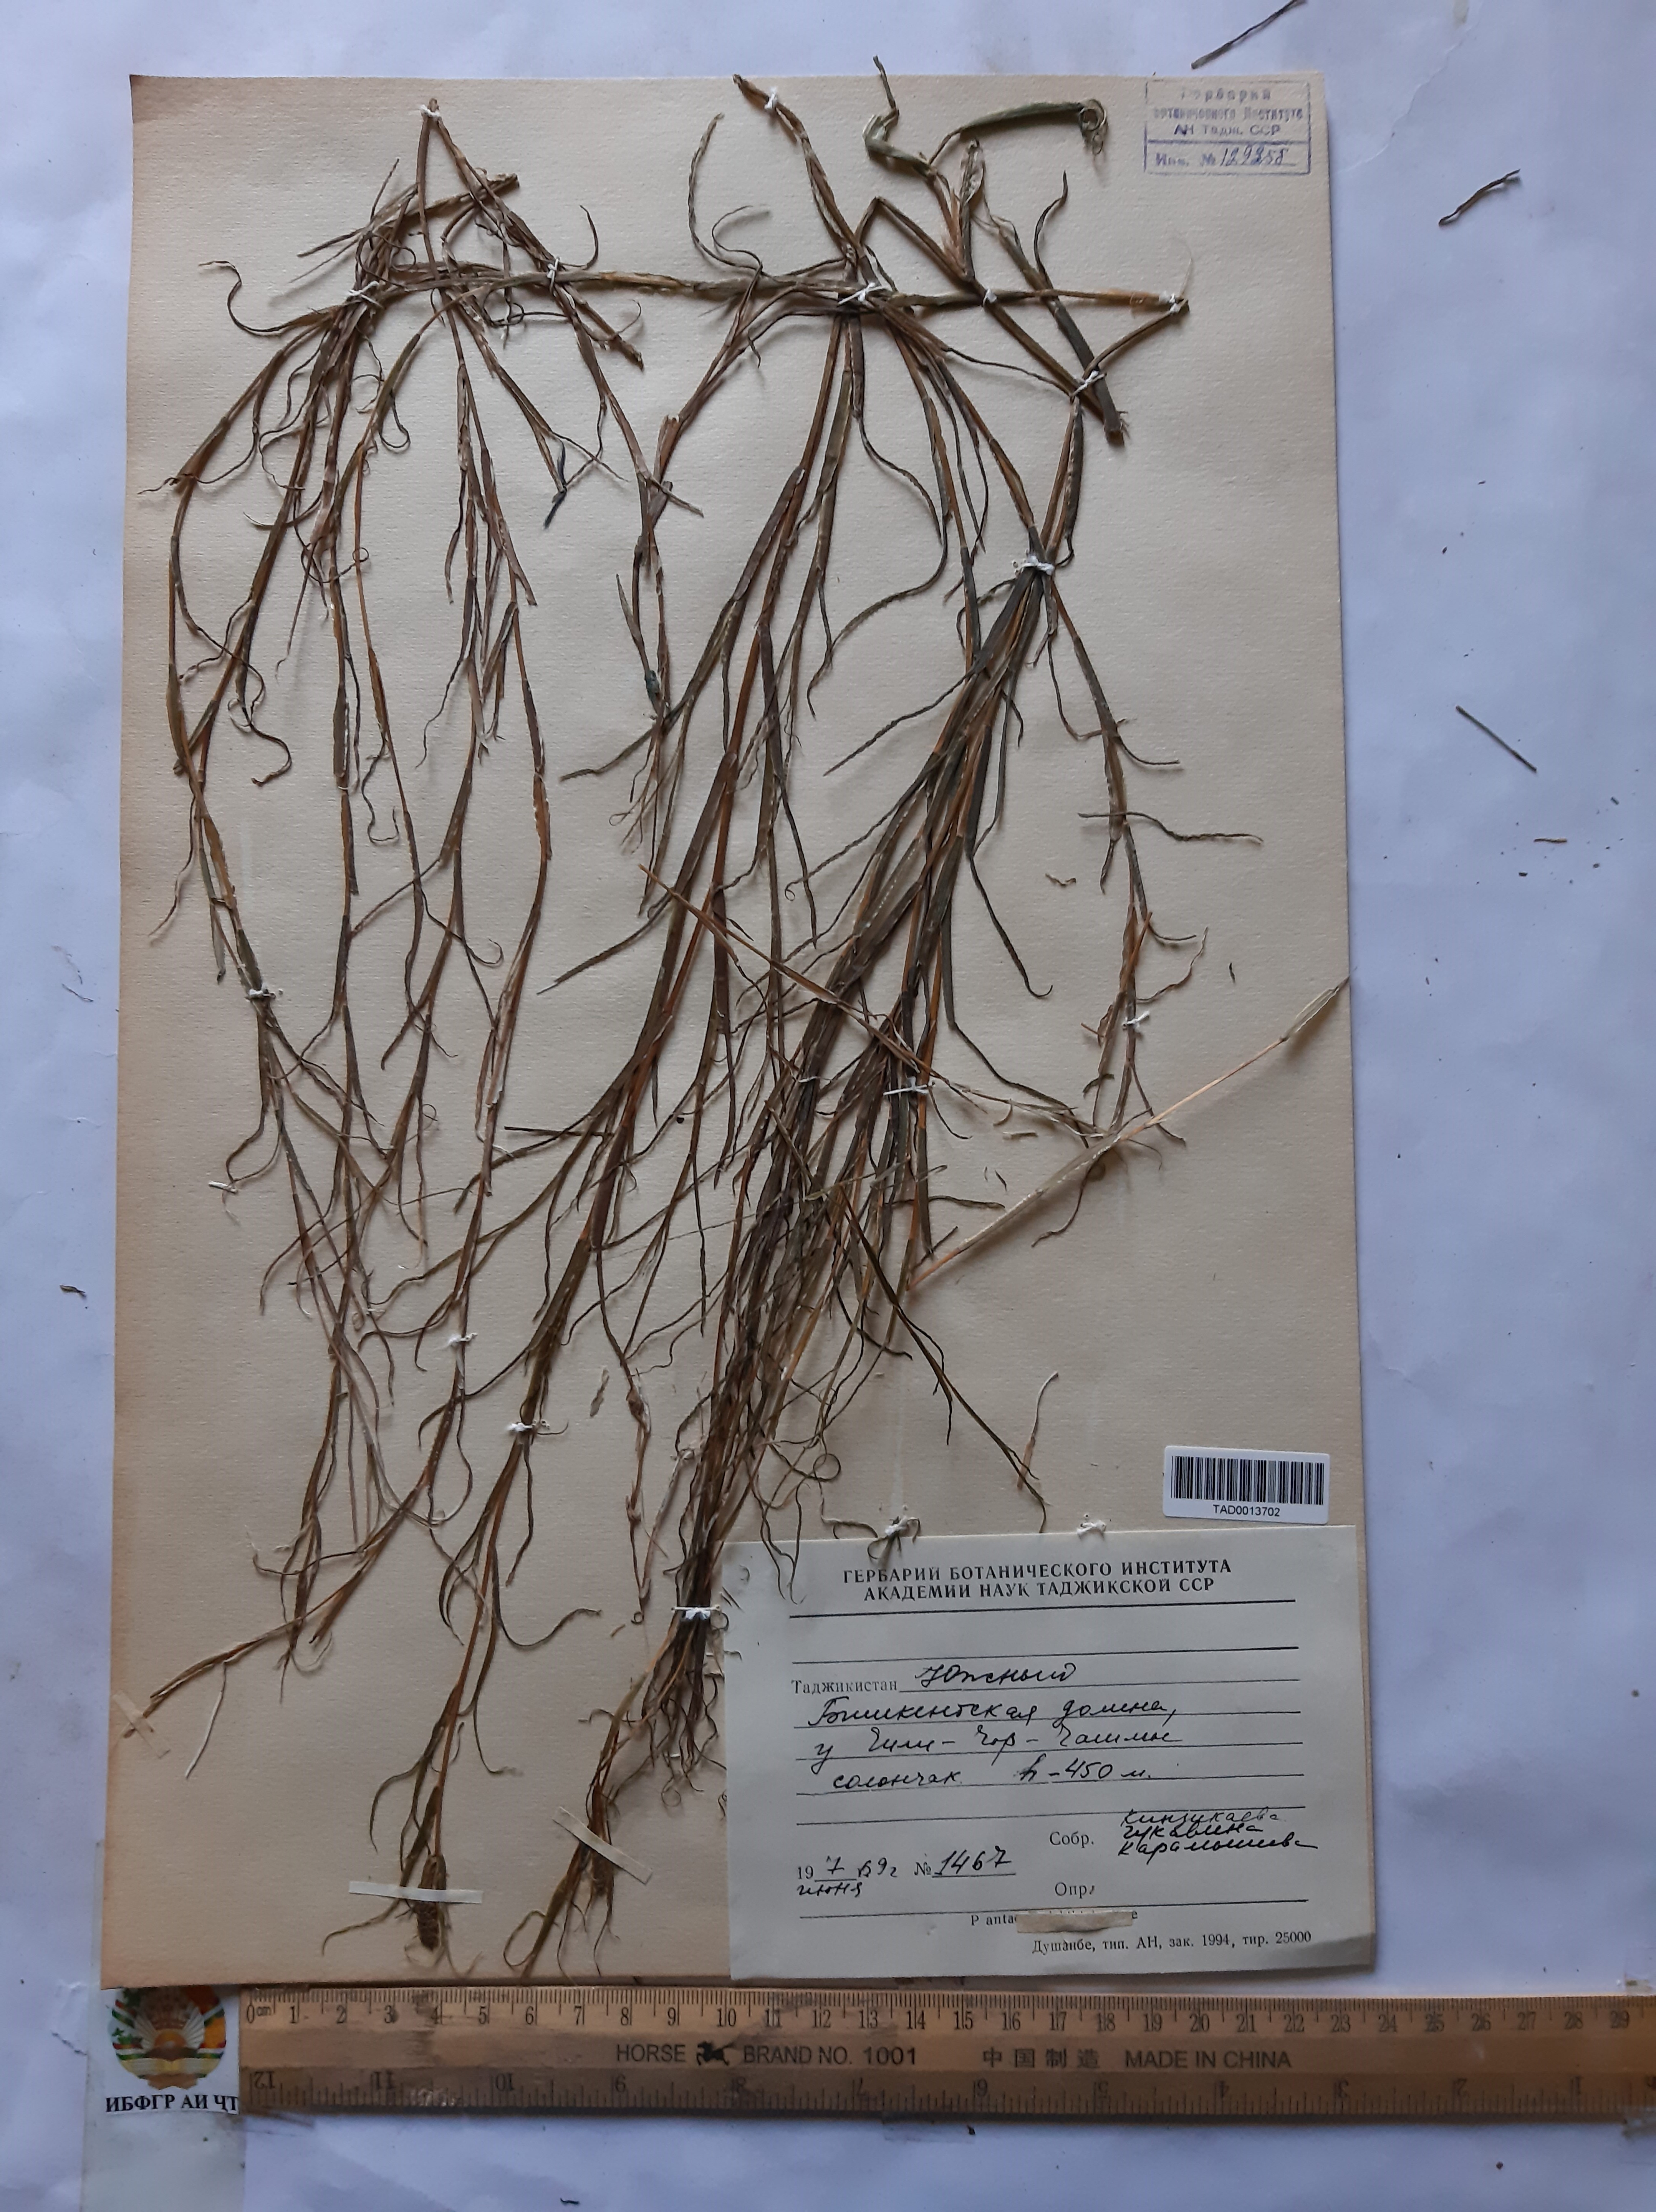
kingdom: Plantae
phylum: Tracheophyta
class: Liliopsida
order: Alismatales
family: Potamogetonaceae
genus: Potamogeton
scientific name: Potamogeton crispus
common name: Curled pondweed
